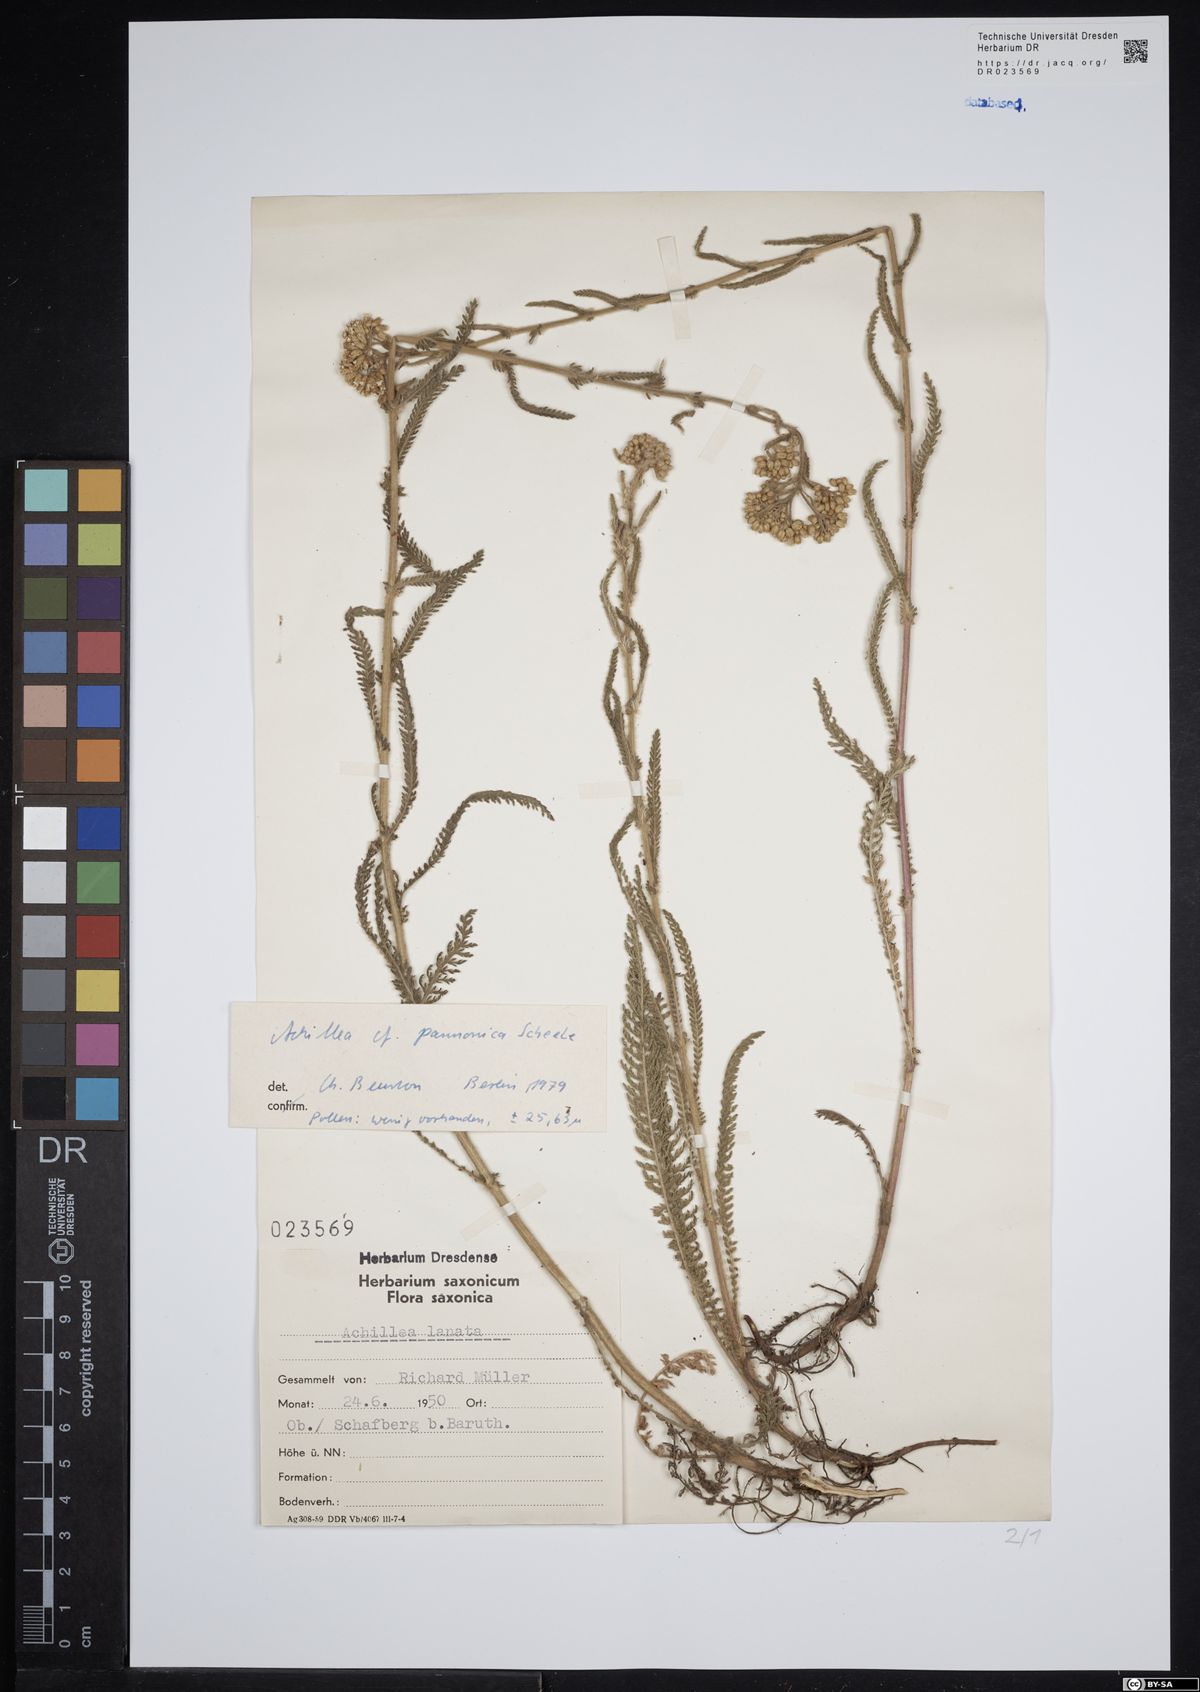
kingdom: Plantae
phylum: Tracheophyta
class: Magnoliopsida
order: Asterales
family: Asteraceae
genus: Achillea
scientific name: Achillea pannonica
